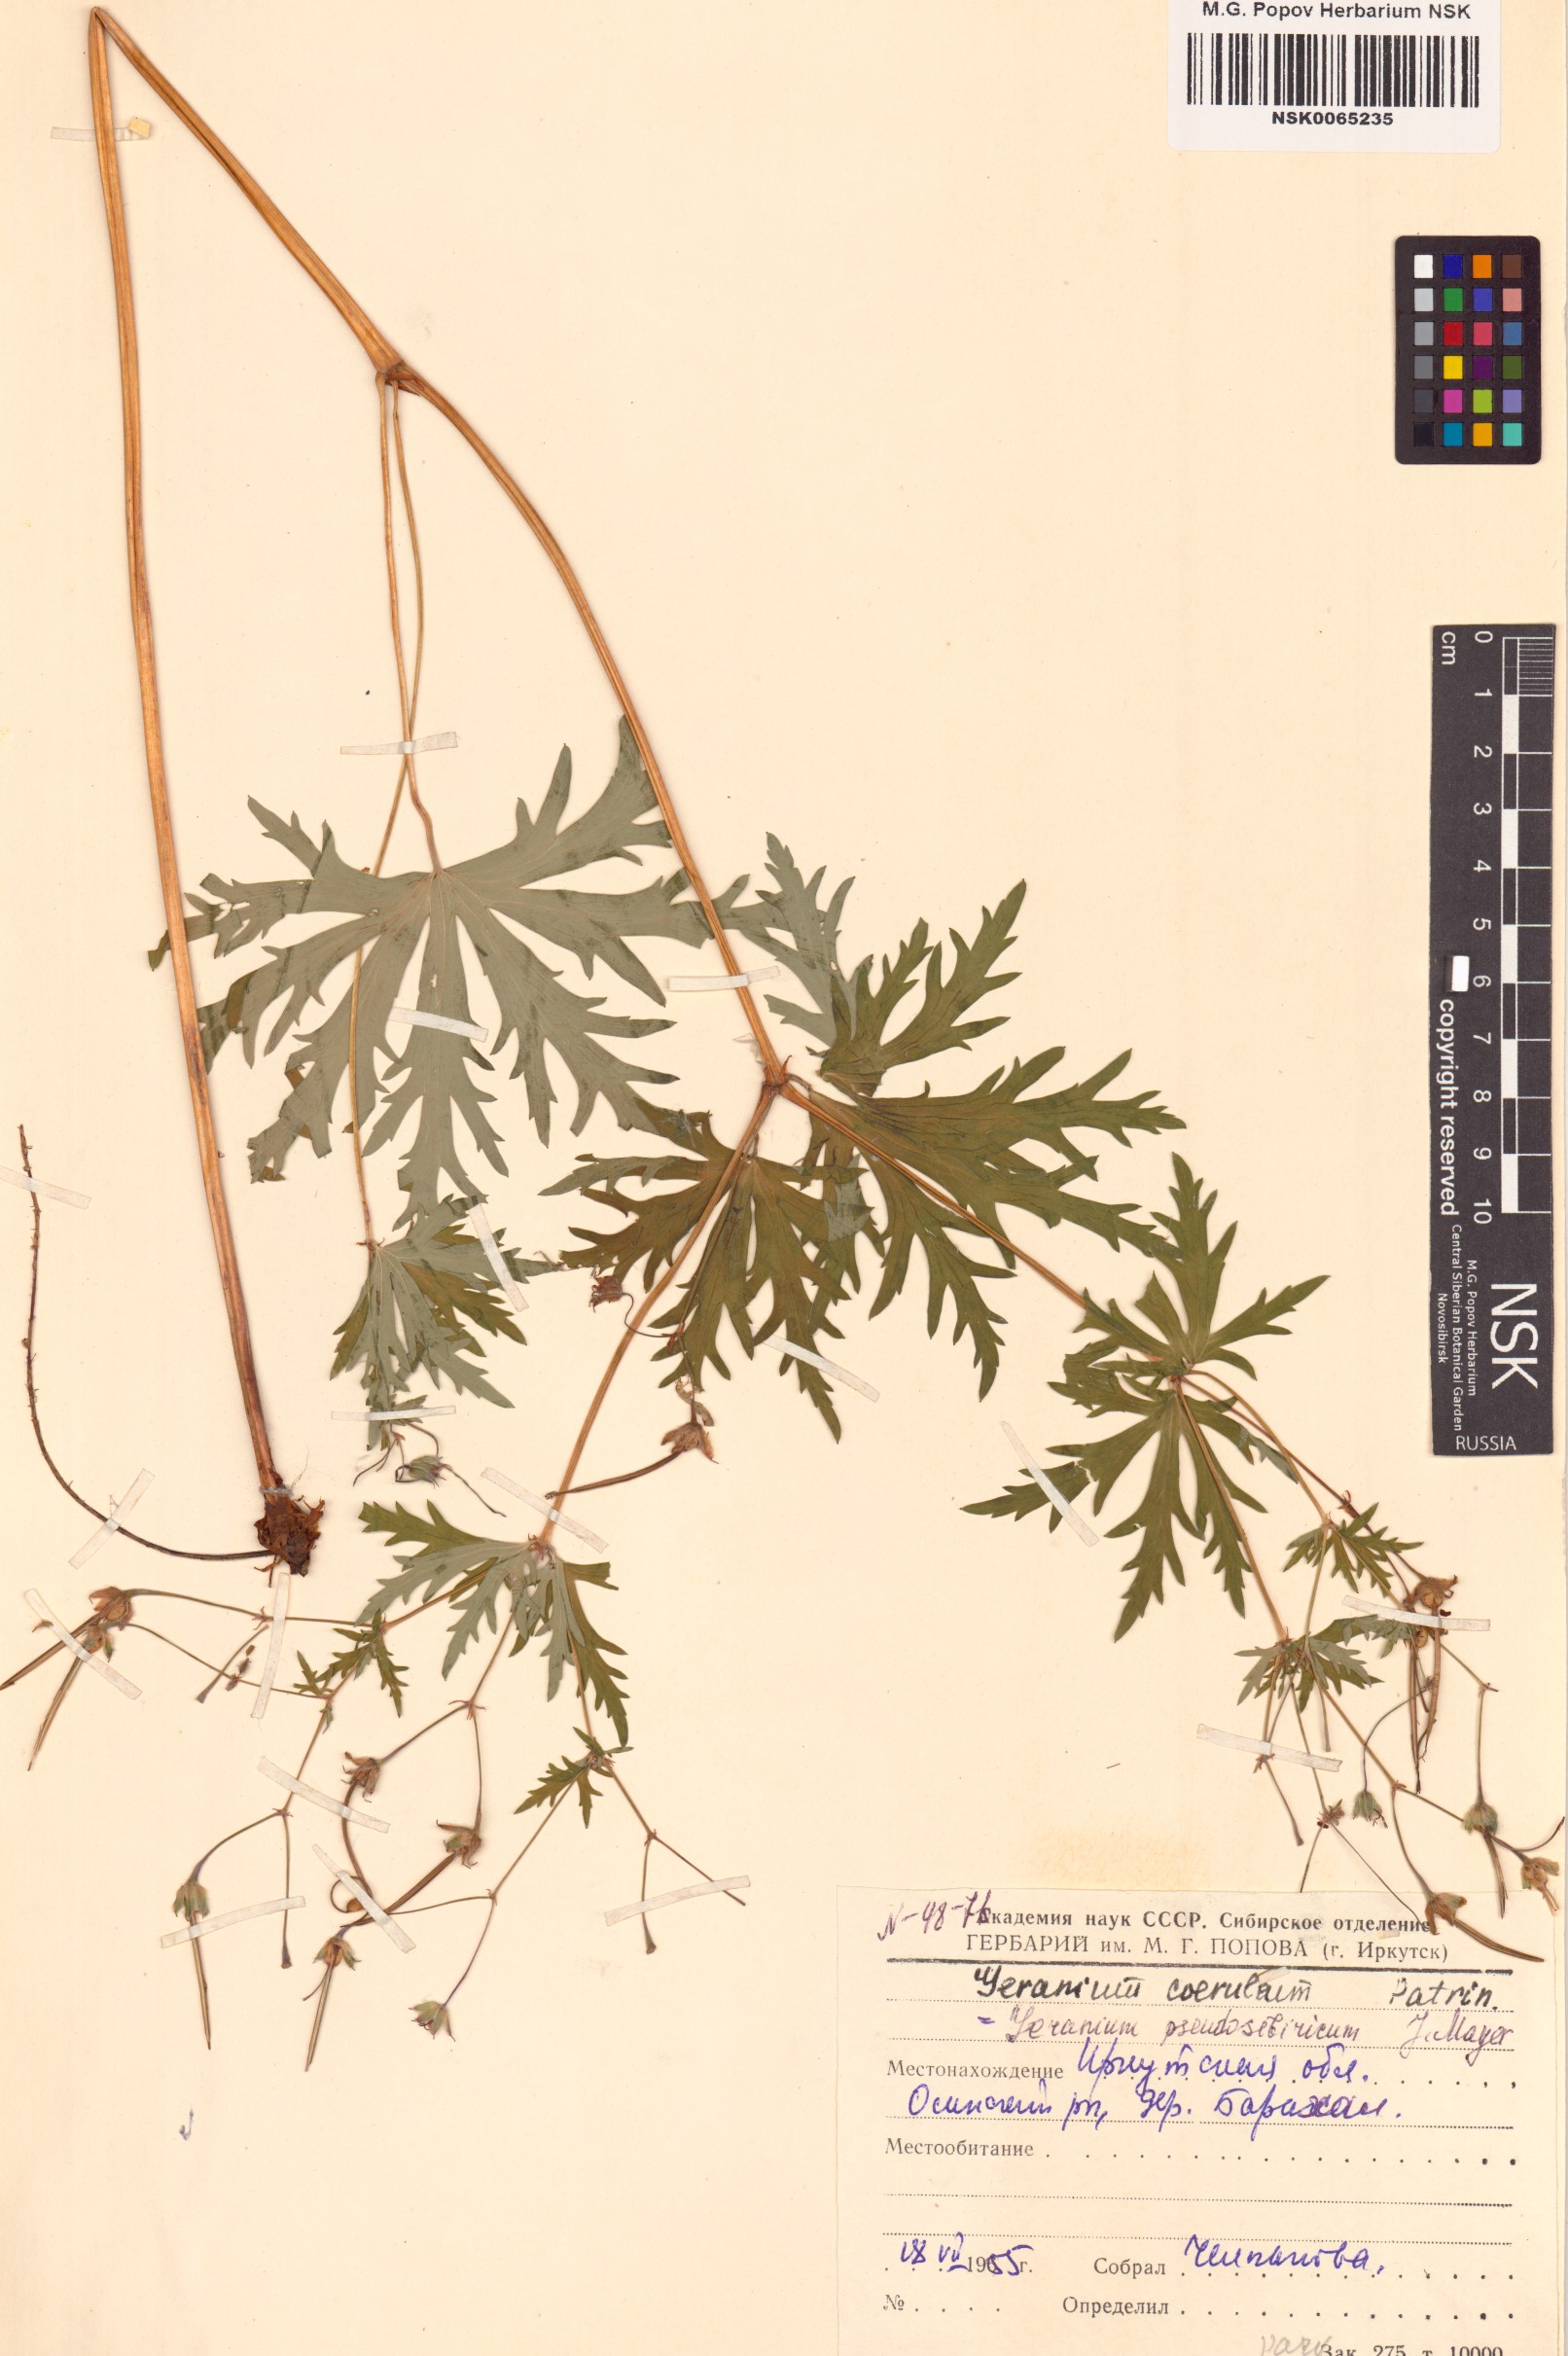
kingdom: Plantae
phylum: Tracheophyta
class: Magnoliopsida
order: Geraniales
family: Geraniaceae
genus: Geranium
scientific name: Geranium pseudosibiricum
